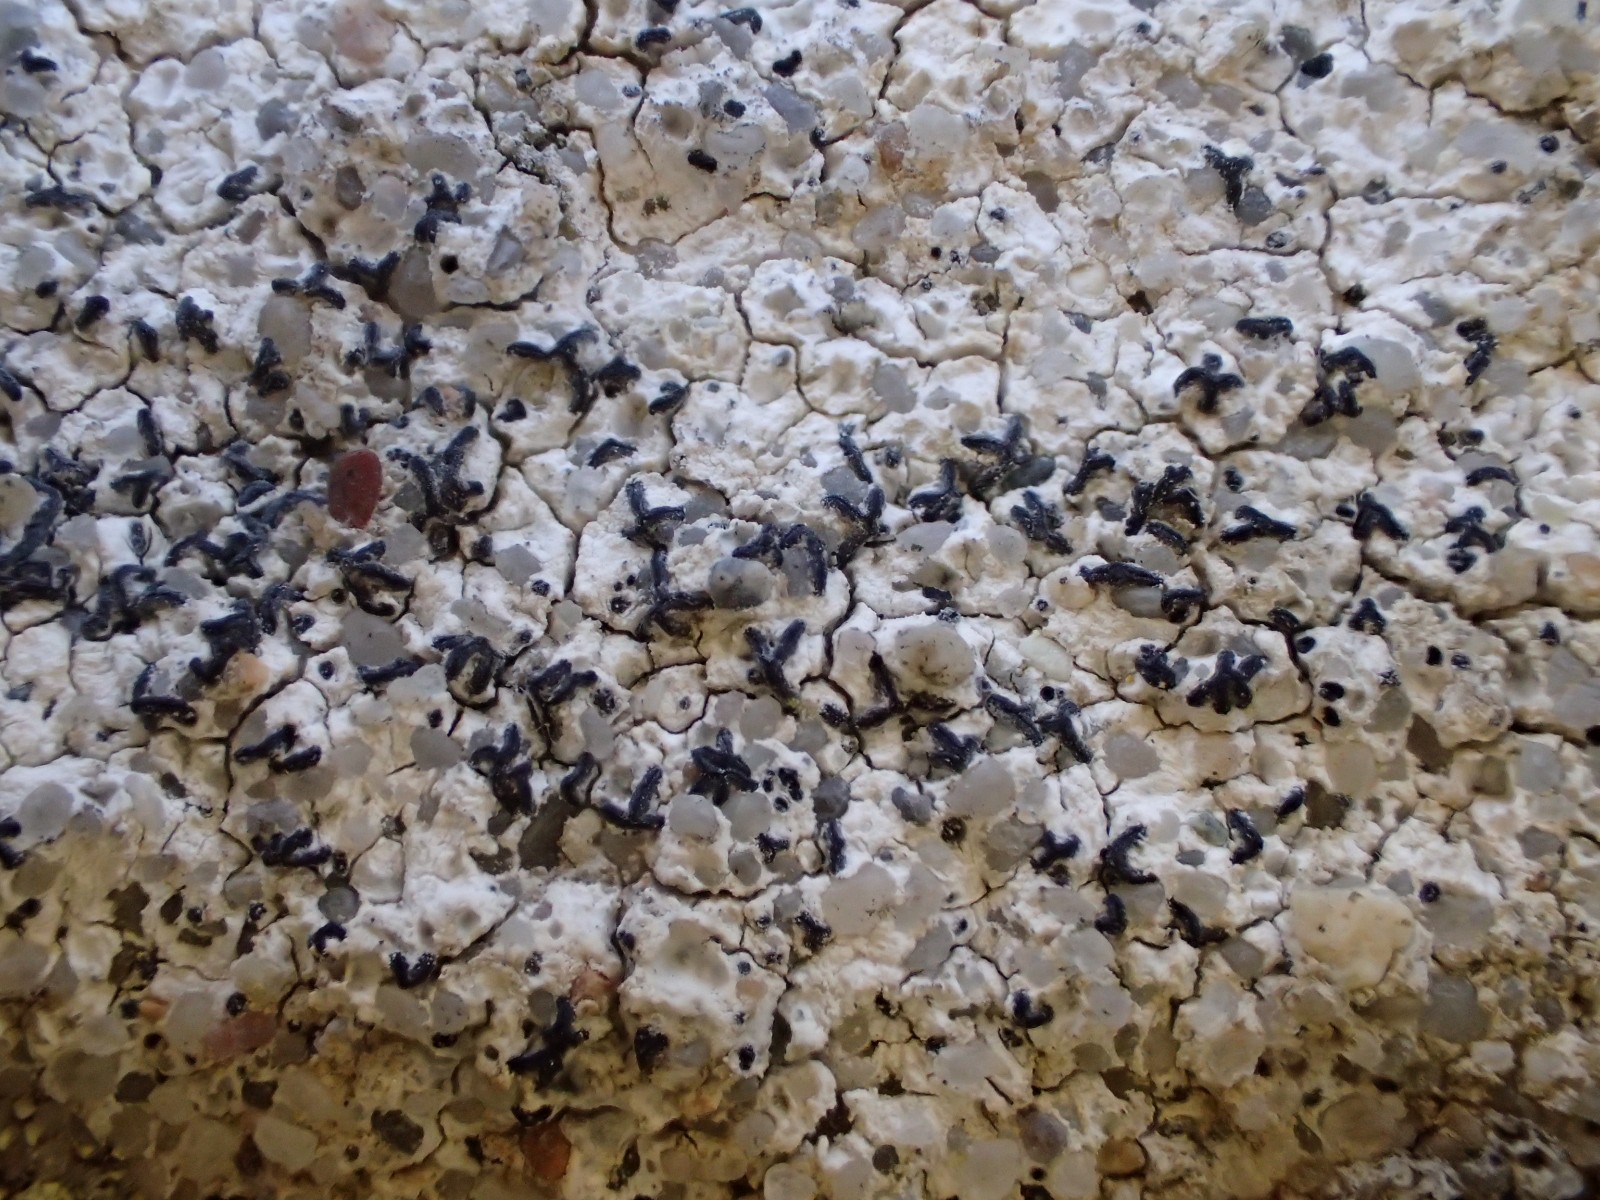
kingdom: Fungi
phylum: Ascomycota
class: Arthoniomycetes
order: Arthoniales
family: Arthoniaceae
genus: Arthonia
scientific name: Arthonia calcarea
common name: kalk-bogstavlav
